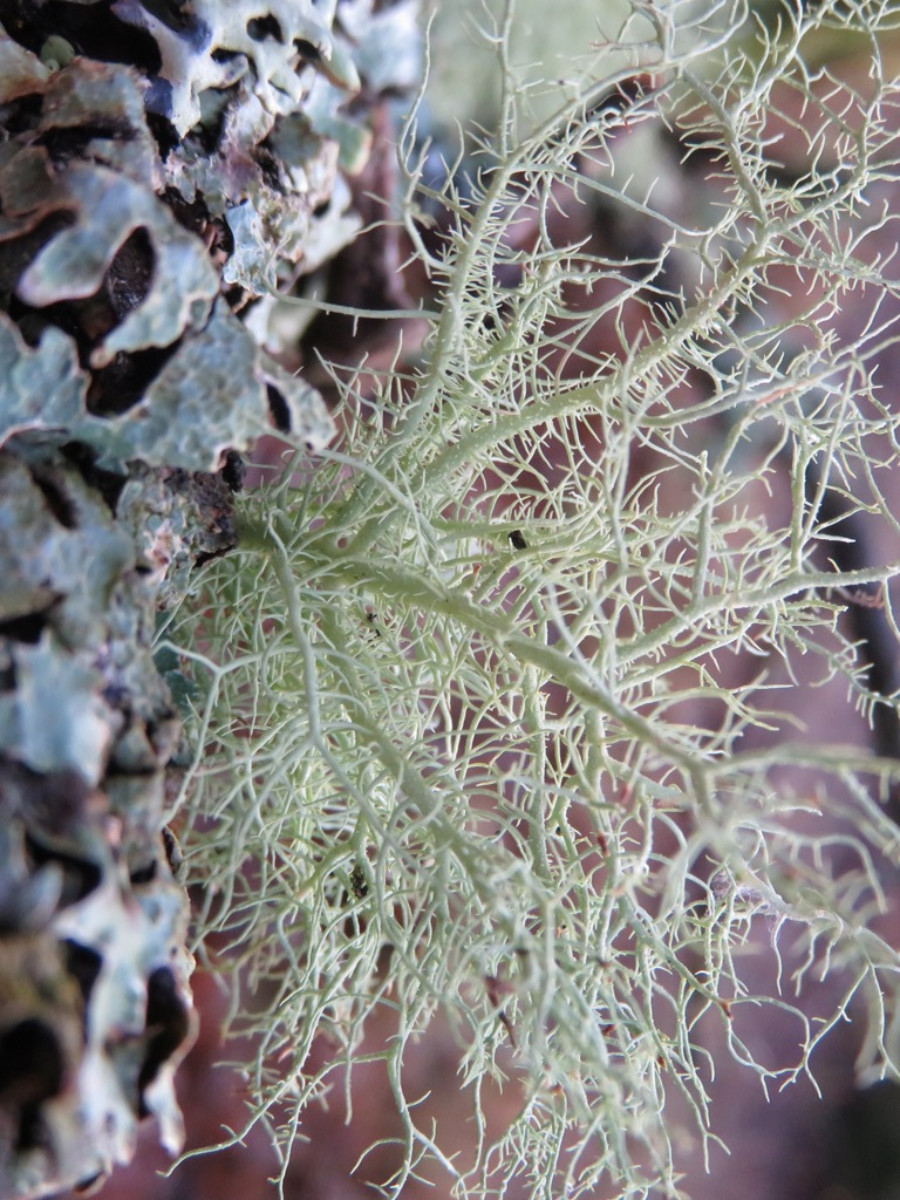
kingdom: Fungi
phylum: Ascomycota
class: Lecanoromycetes
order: Lecanorales
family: Parmeliaceae
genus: Usnea
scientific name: Usnea hirta
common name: liden skæglav
